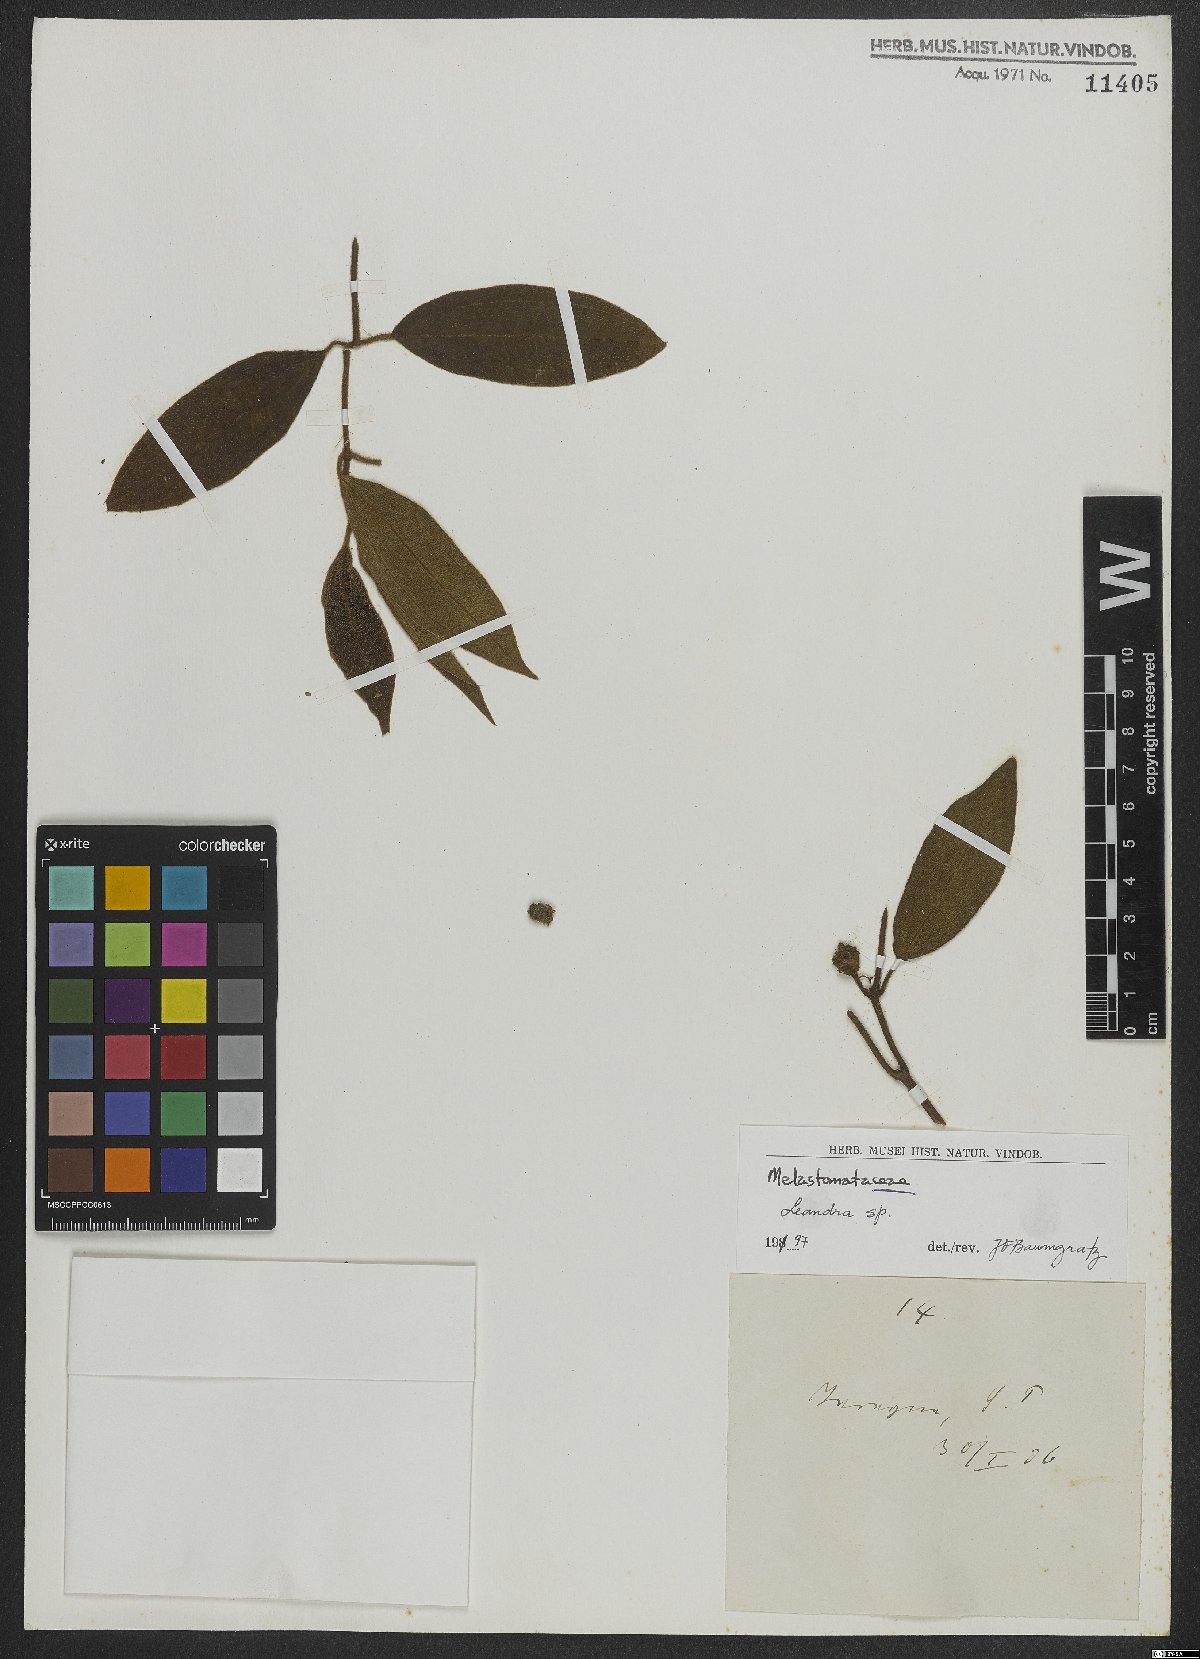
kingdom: Plantae
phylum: Tracheophyta
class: Magnoliopsida
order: Myrtales
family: Melastomataceae
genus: Miconia
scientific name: Miconia
